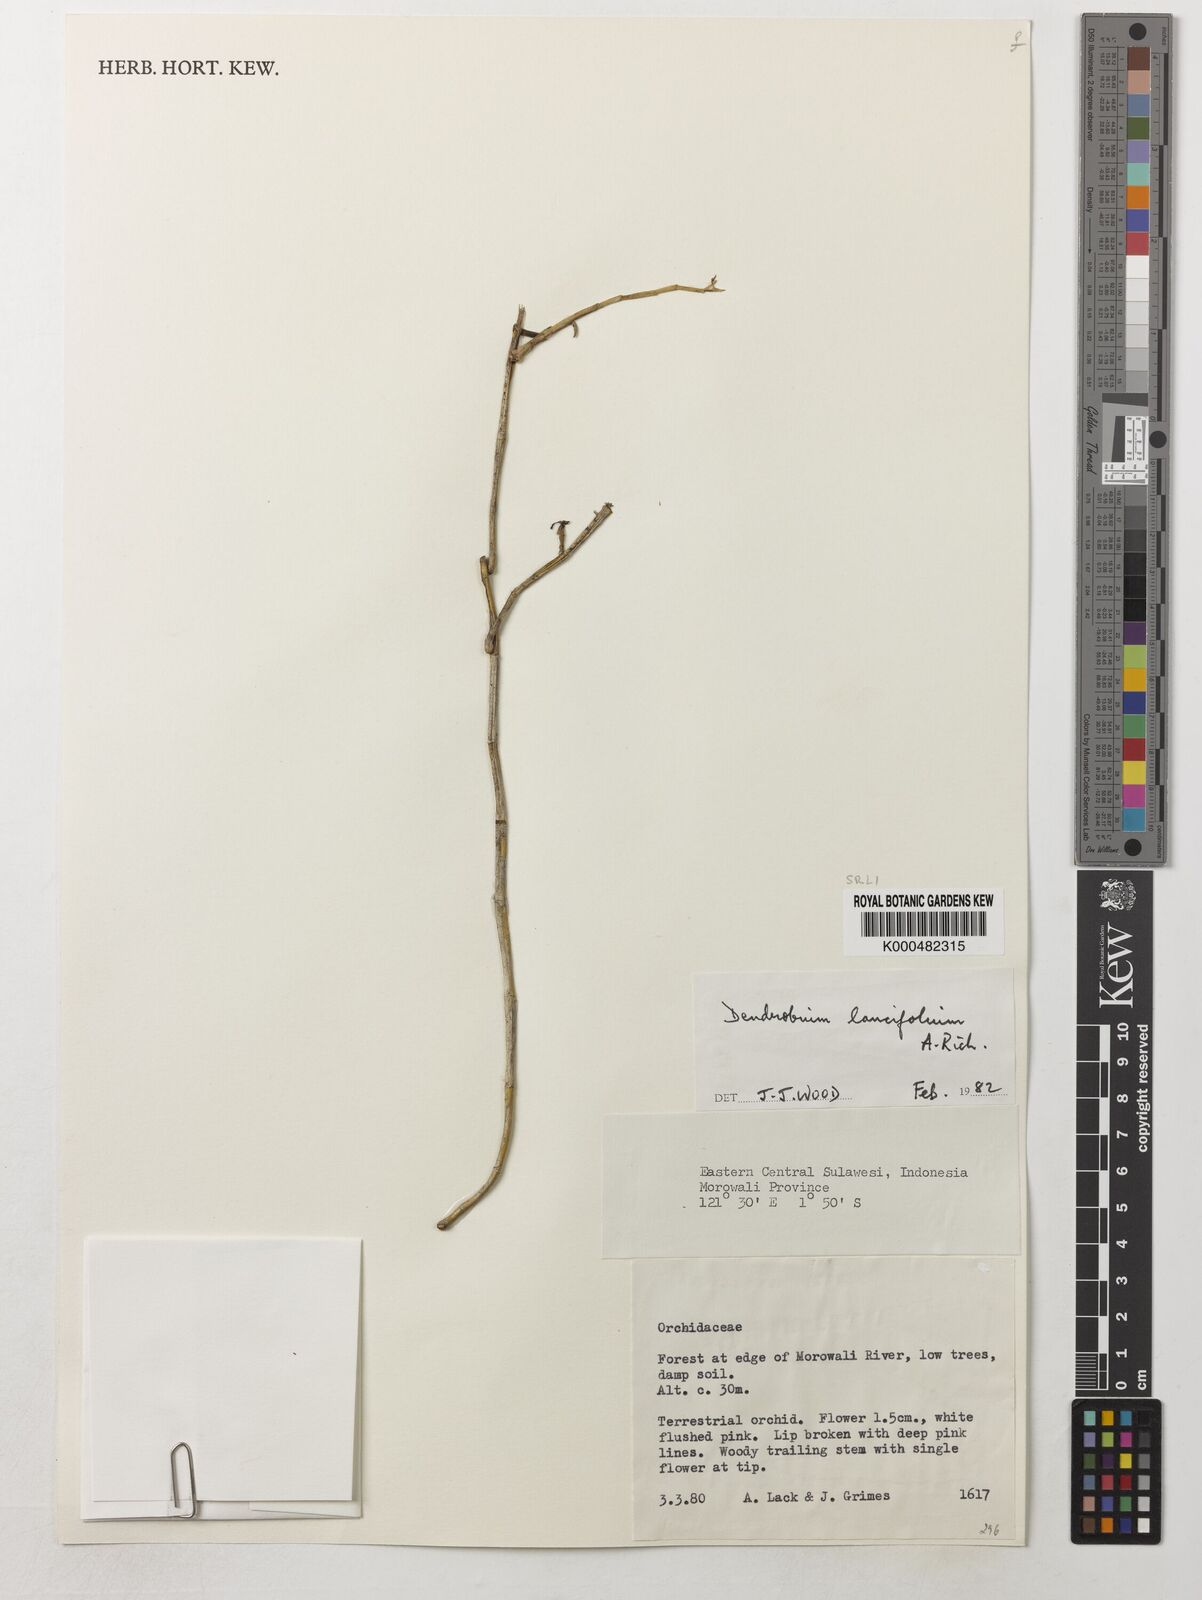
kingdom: Plantae
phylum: Tracheophyta
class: Liliopsida
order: Asparagales
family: Orchidaceae
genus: Dendrobium
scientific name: Dendrobium lanceolatum
